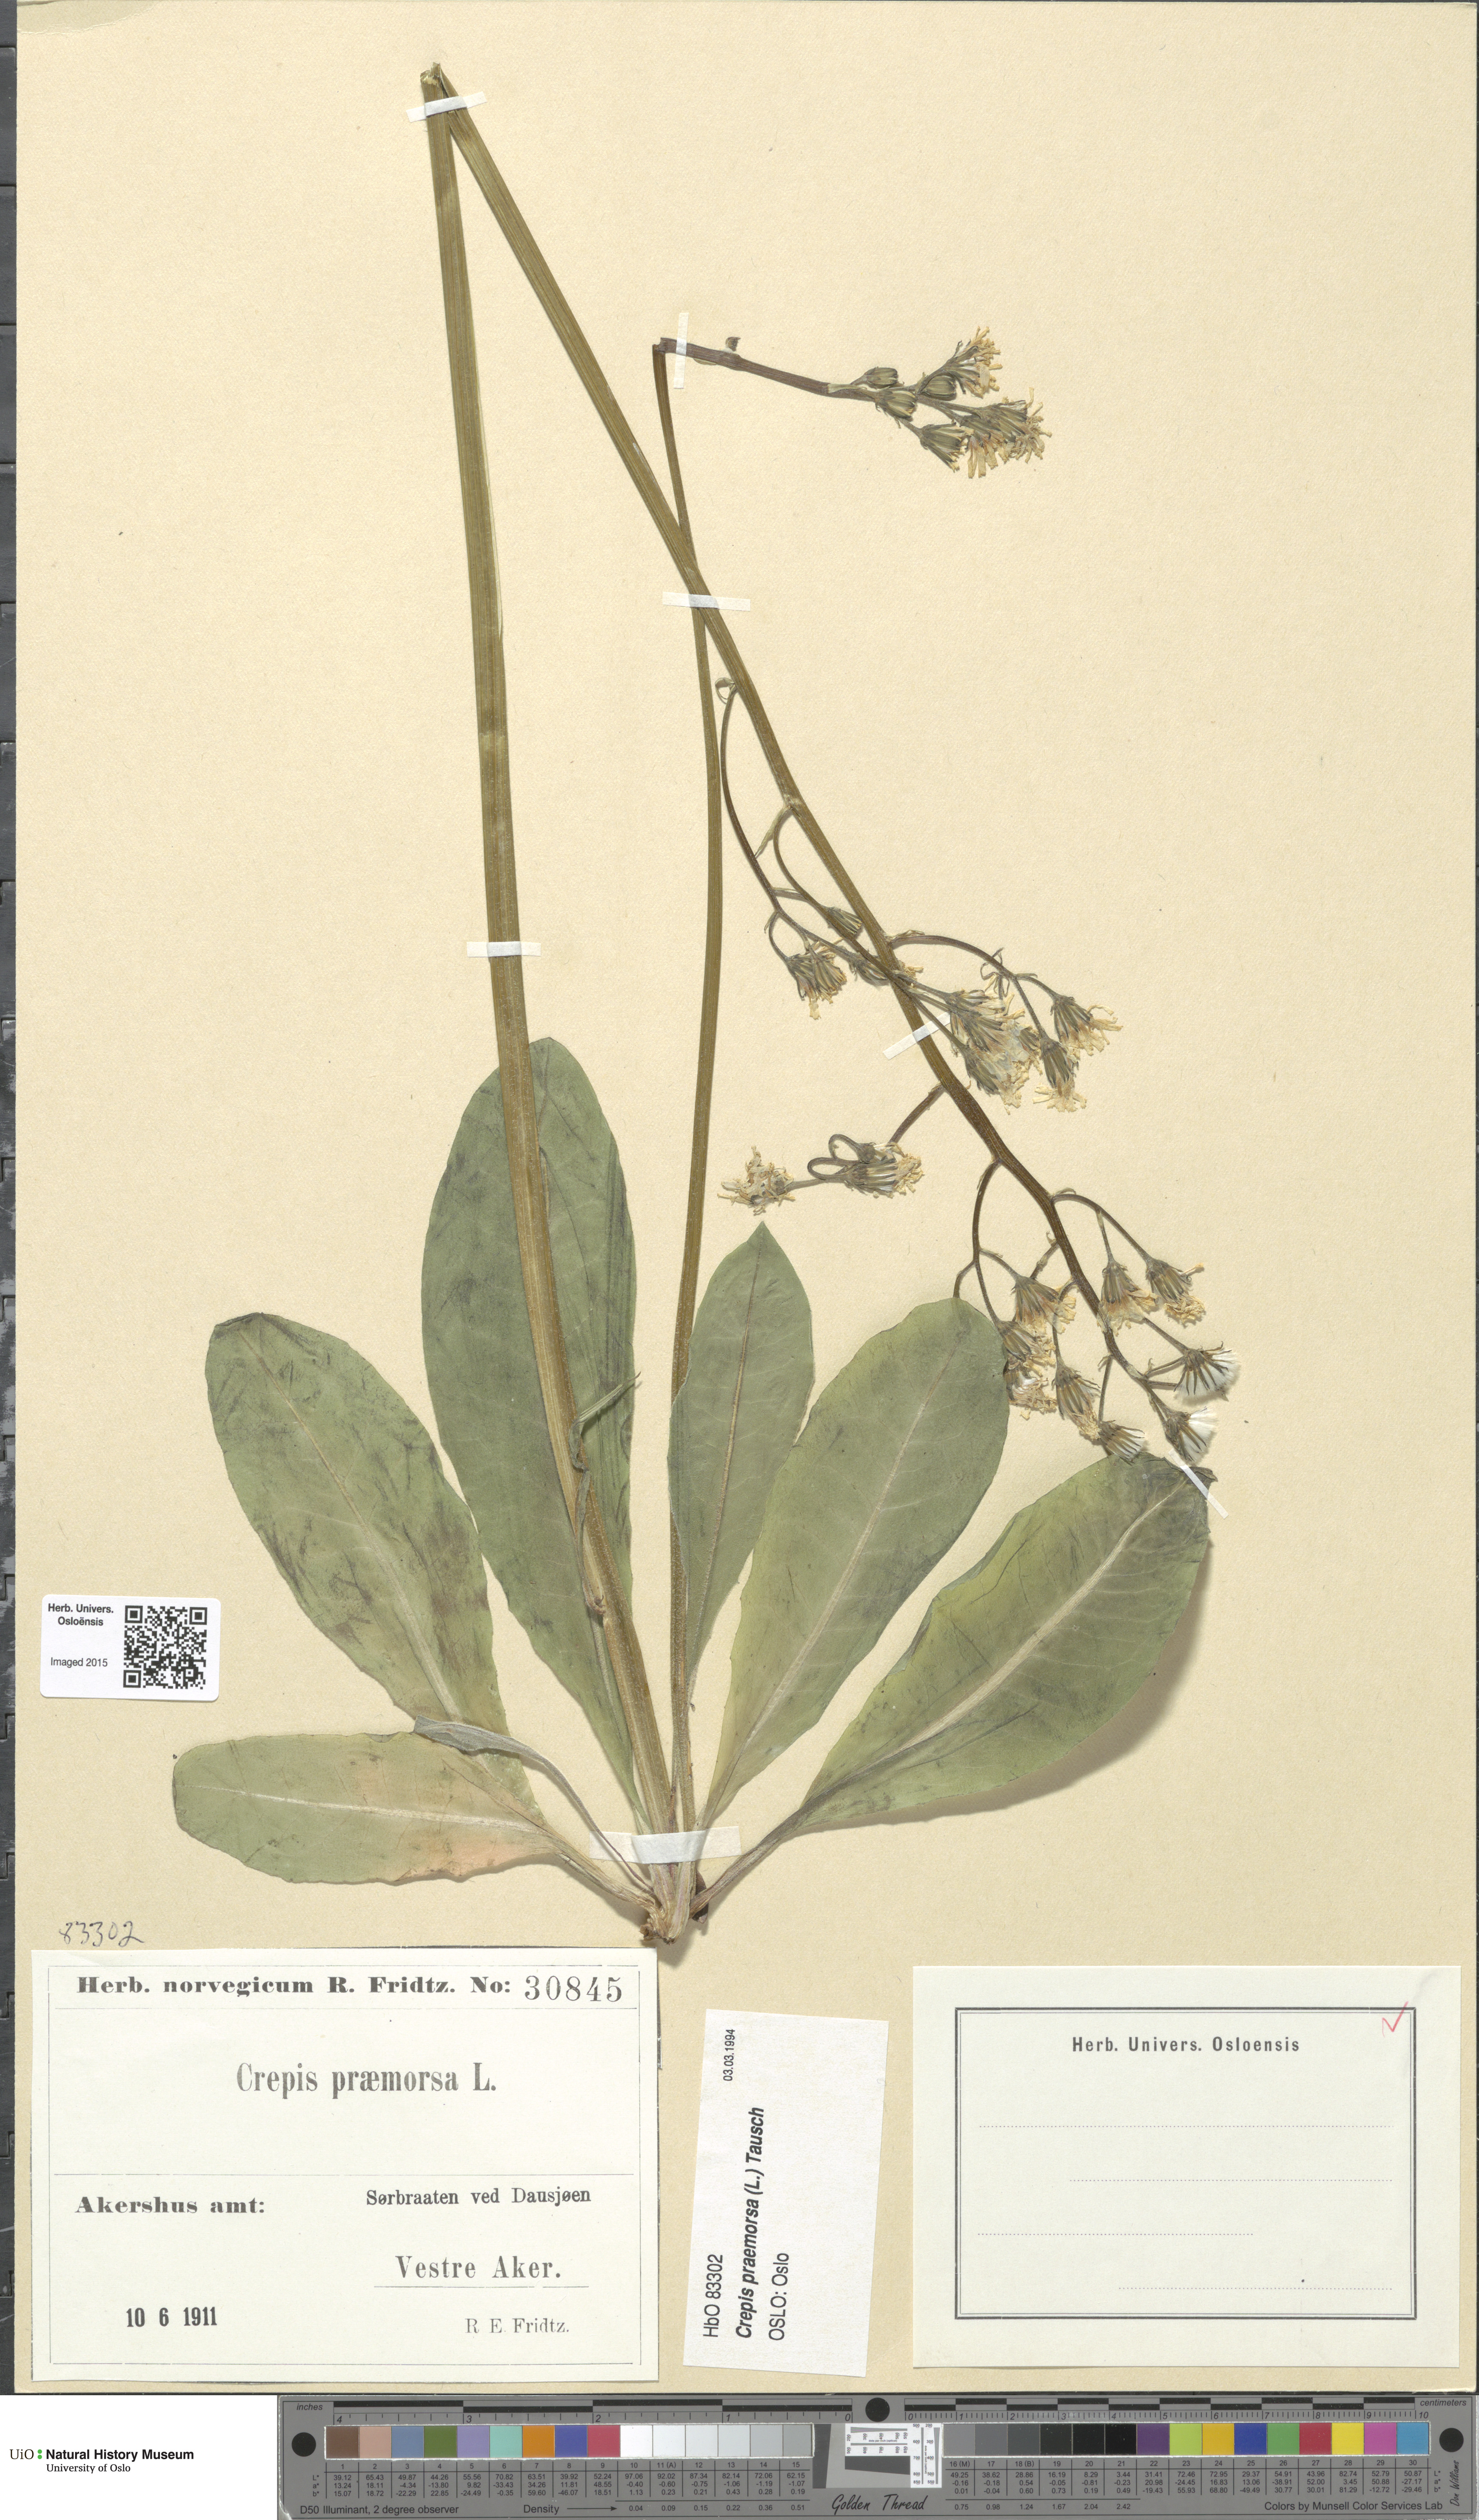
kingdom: Plantae
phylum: Tracheophyta
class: Magnoliopsida
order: Asterales
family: Asteraceae
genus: Crepis
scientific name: Crepis praemorsa
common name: Leafless hawk's-beard
